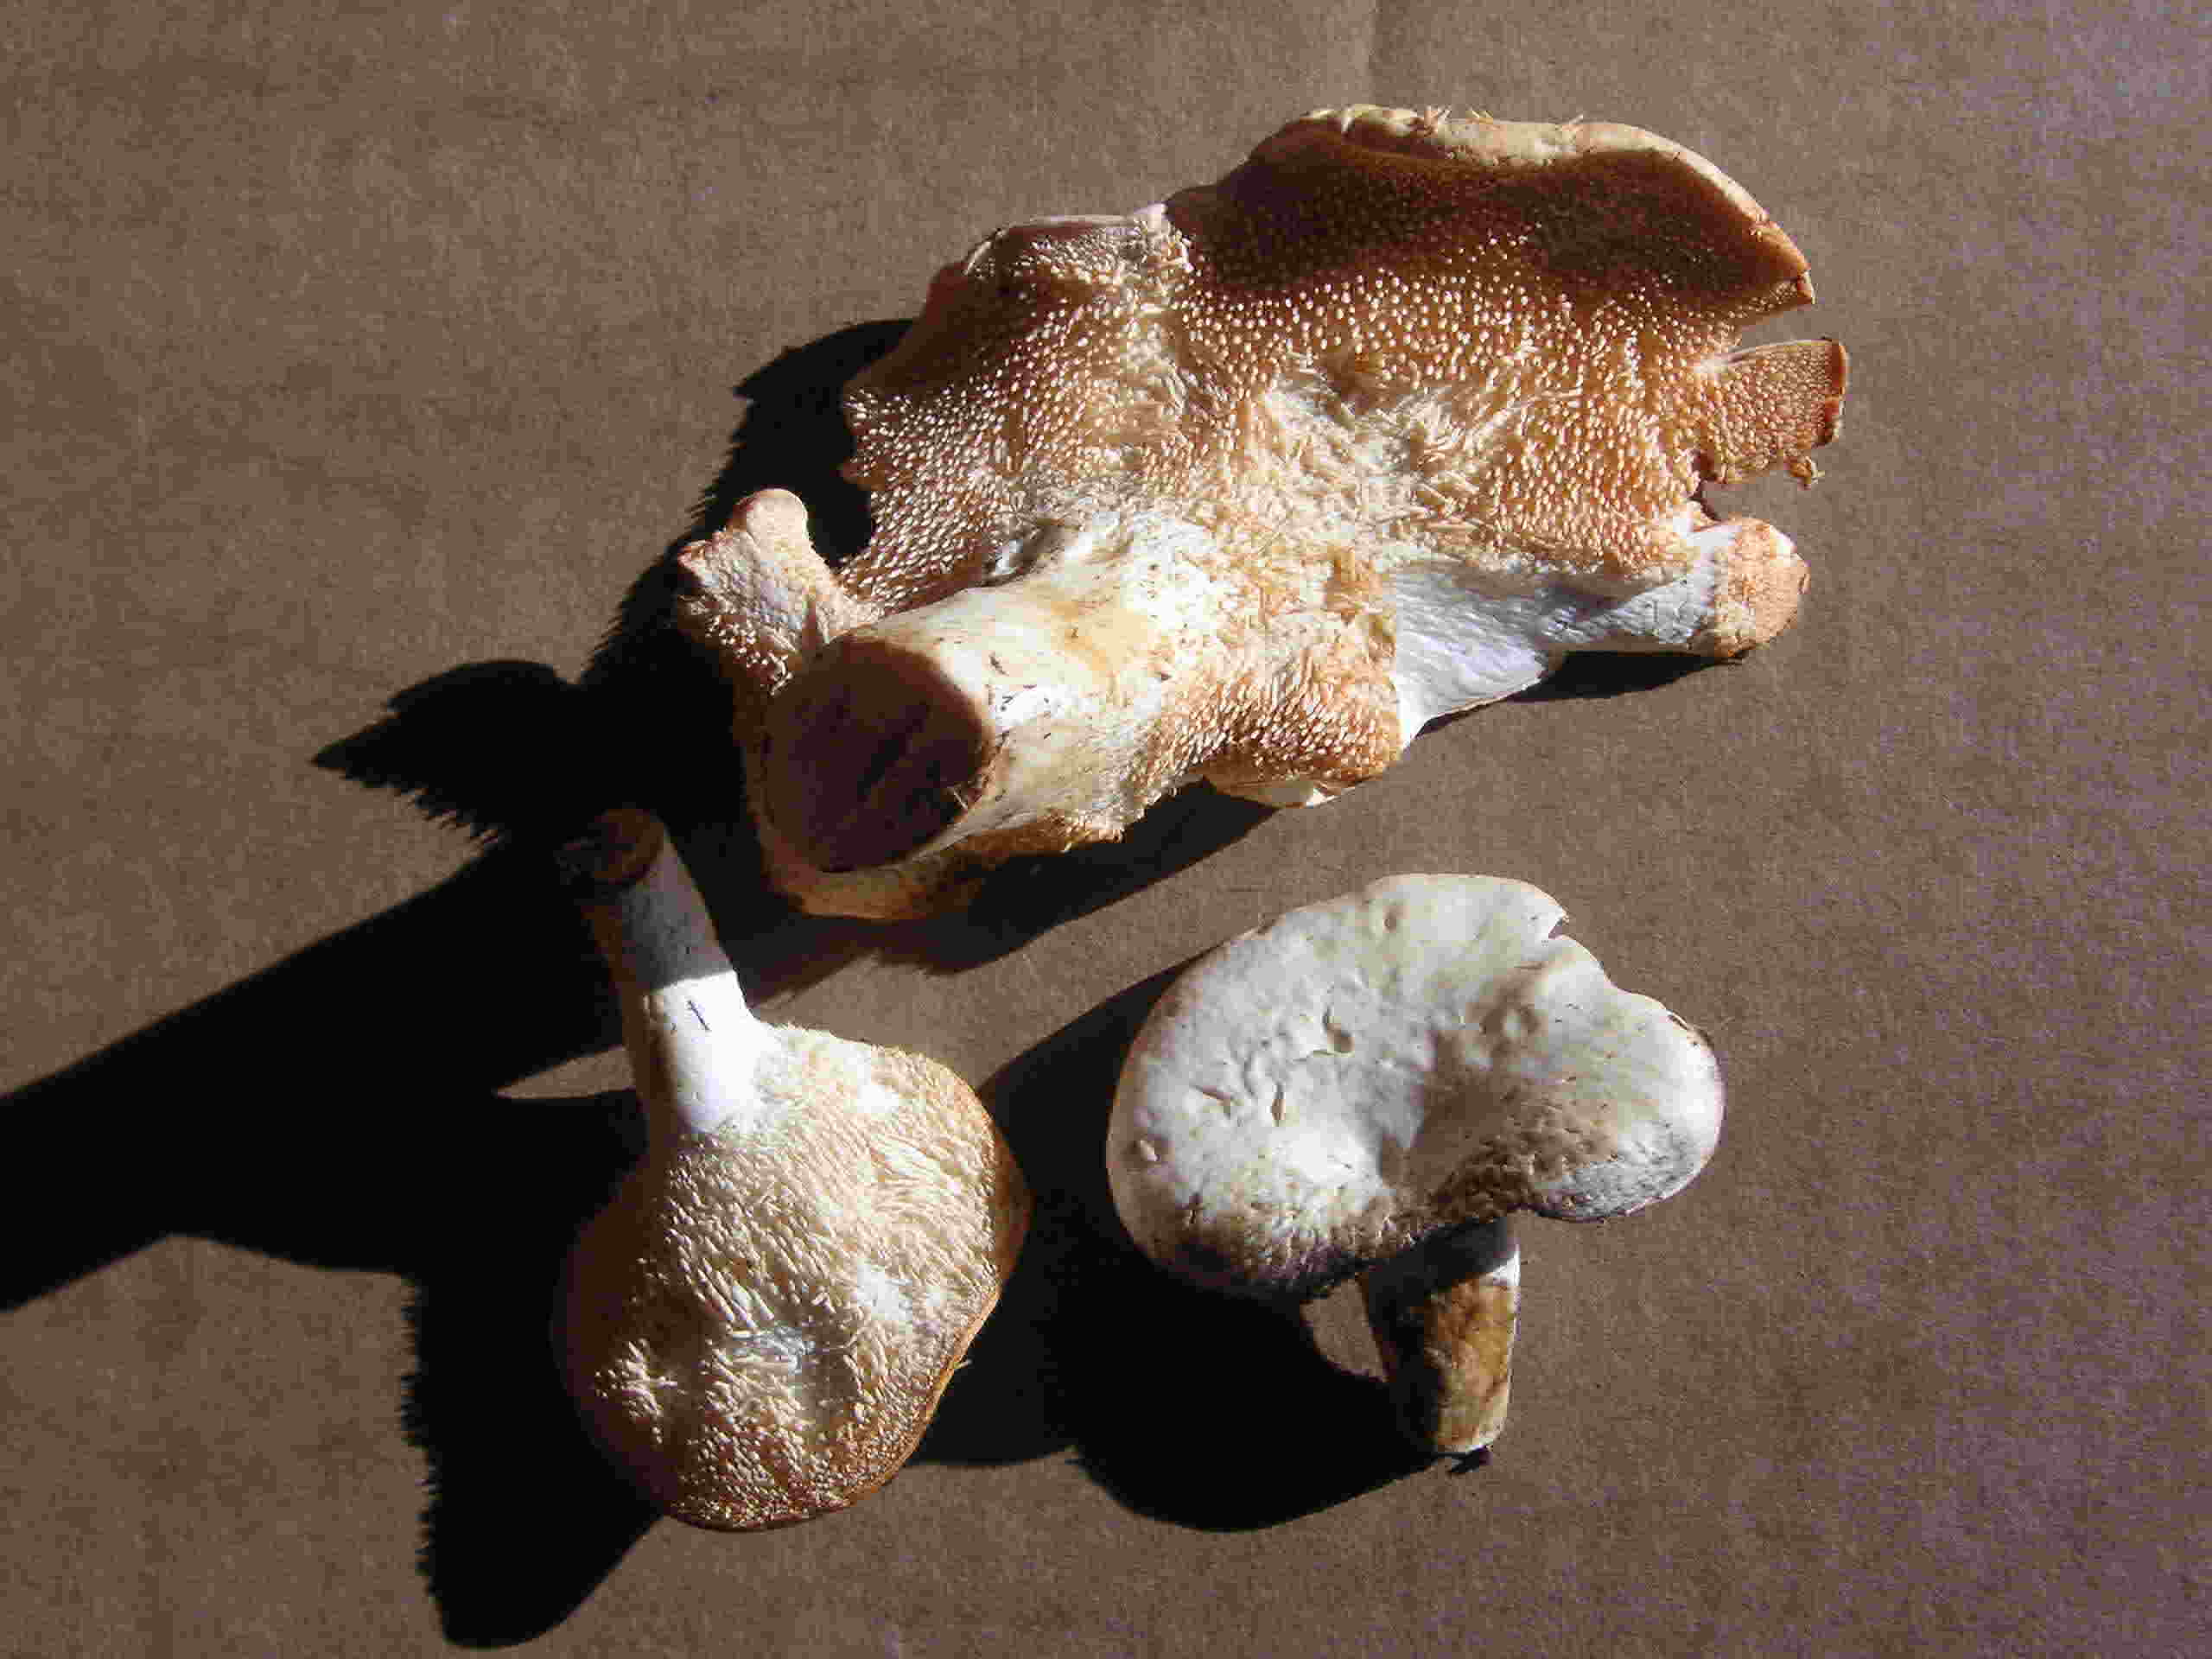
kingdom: Fungi
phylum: Basidiomycota
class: Agaricomycetes
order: Cantharellales
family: Hydnaceae
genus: Hydnum
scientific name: Hydnum repandum
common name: almindelig pigsvamp
